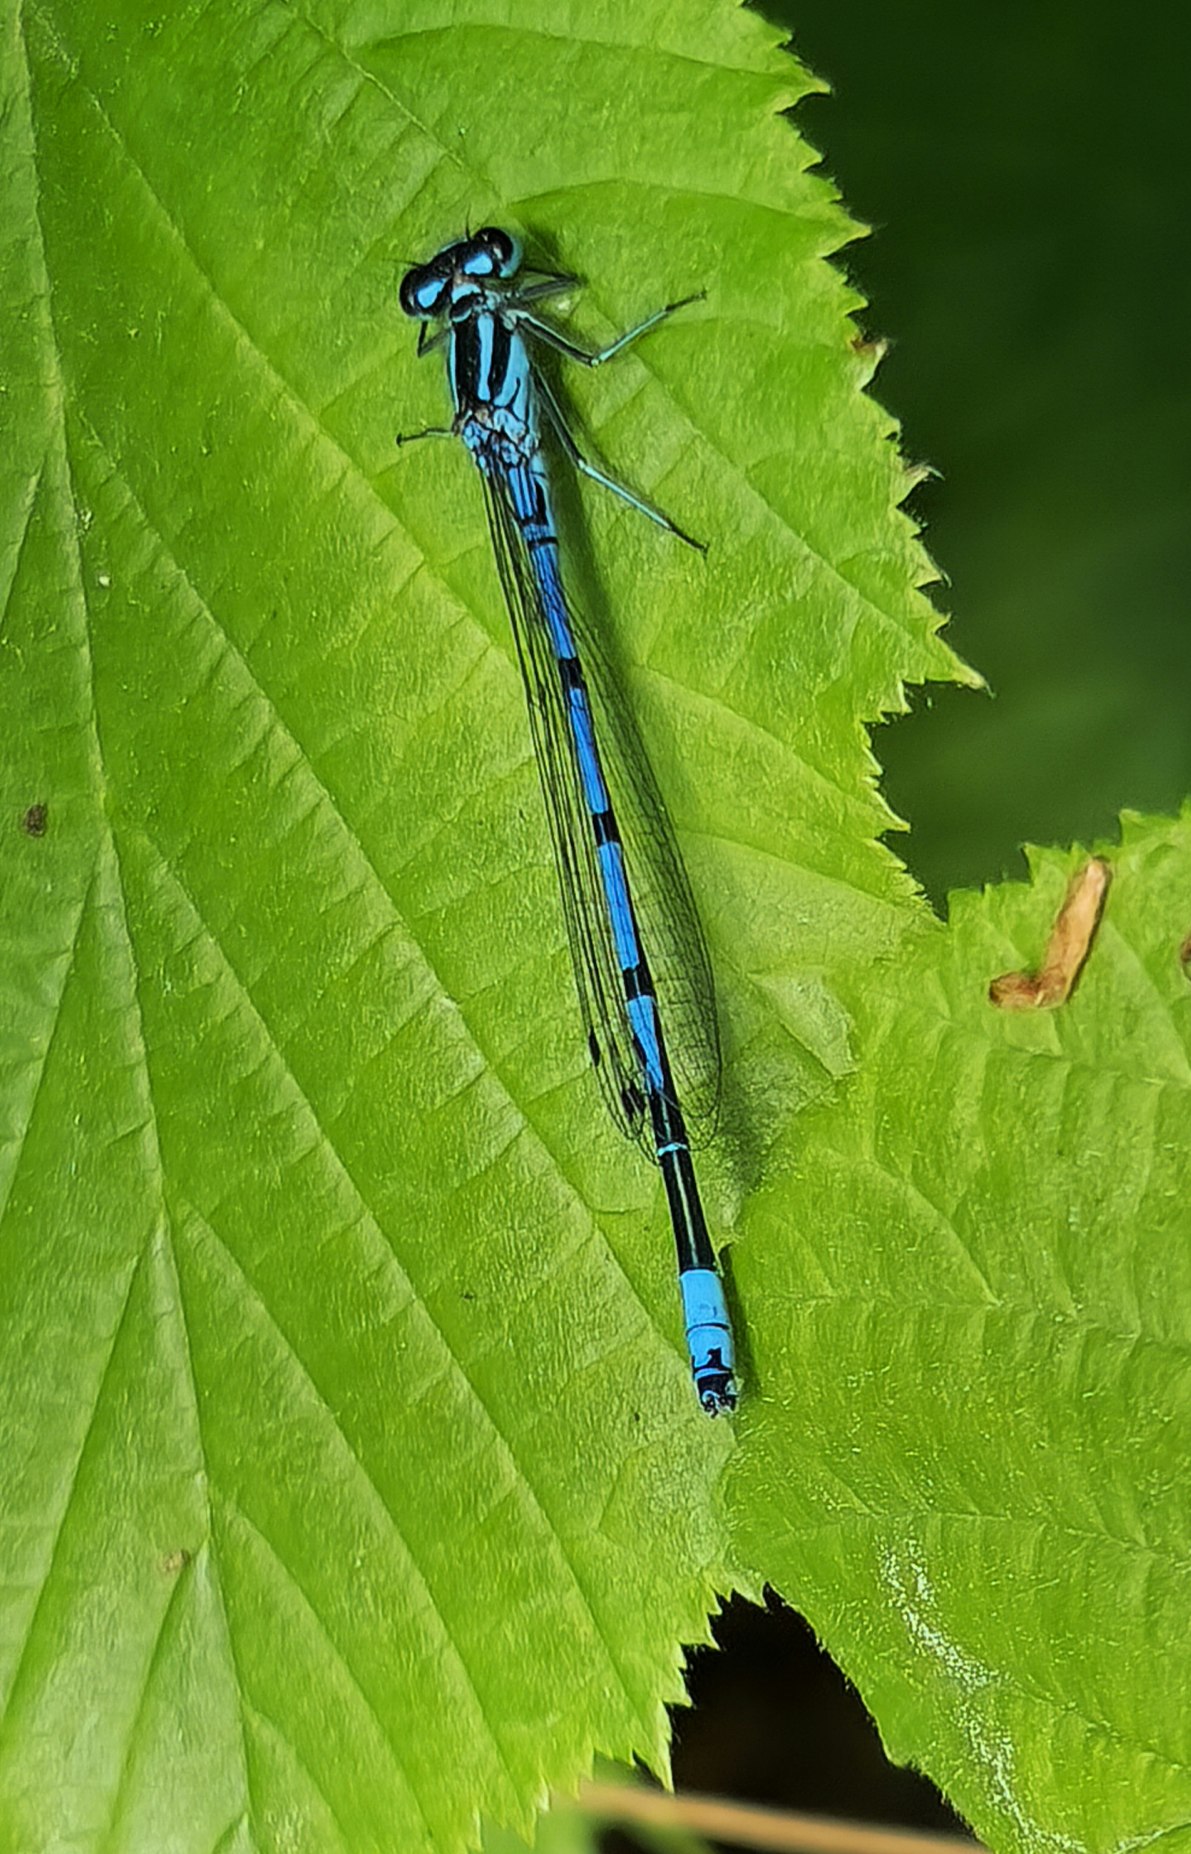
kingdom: Animalia
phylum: Arthropoda
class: Insecta
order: Odonata
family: Coenagrionidae
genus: Coenagrion
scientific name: Coenagrion puella
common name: Hestesko-vandnymfe
